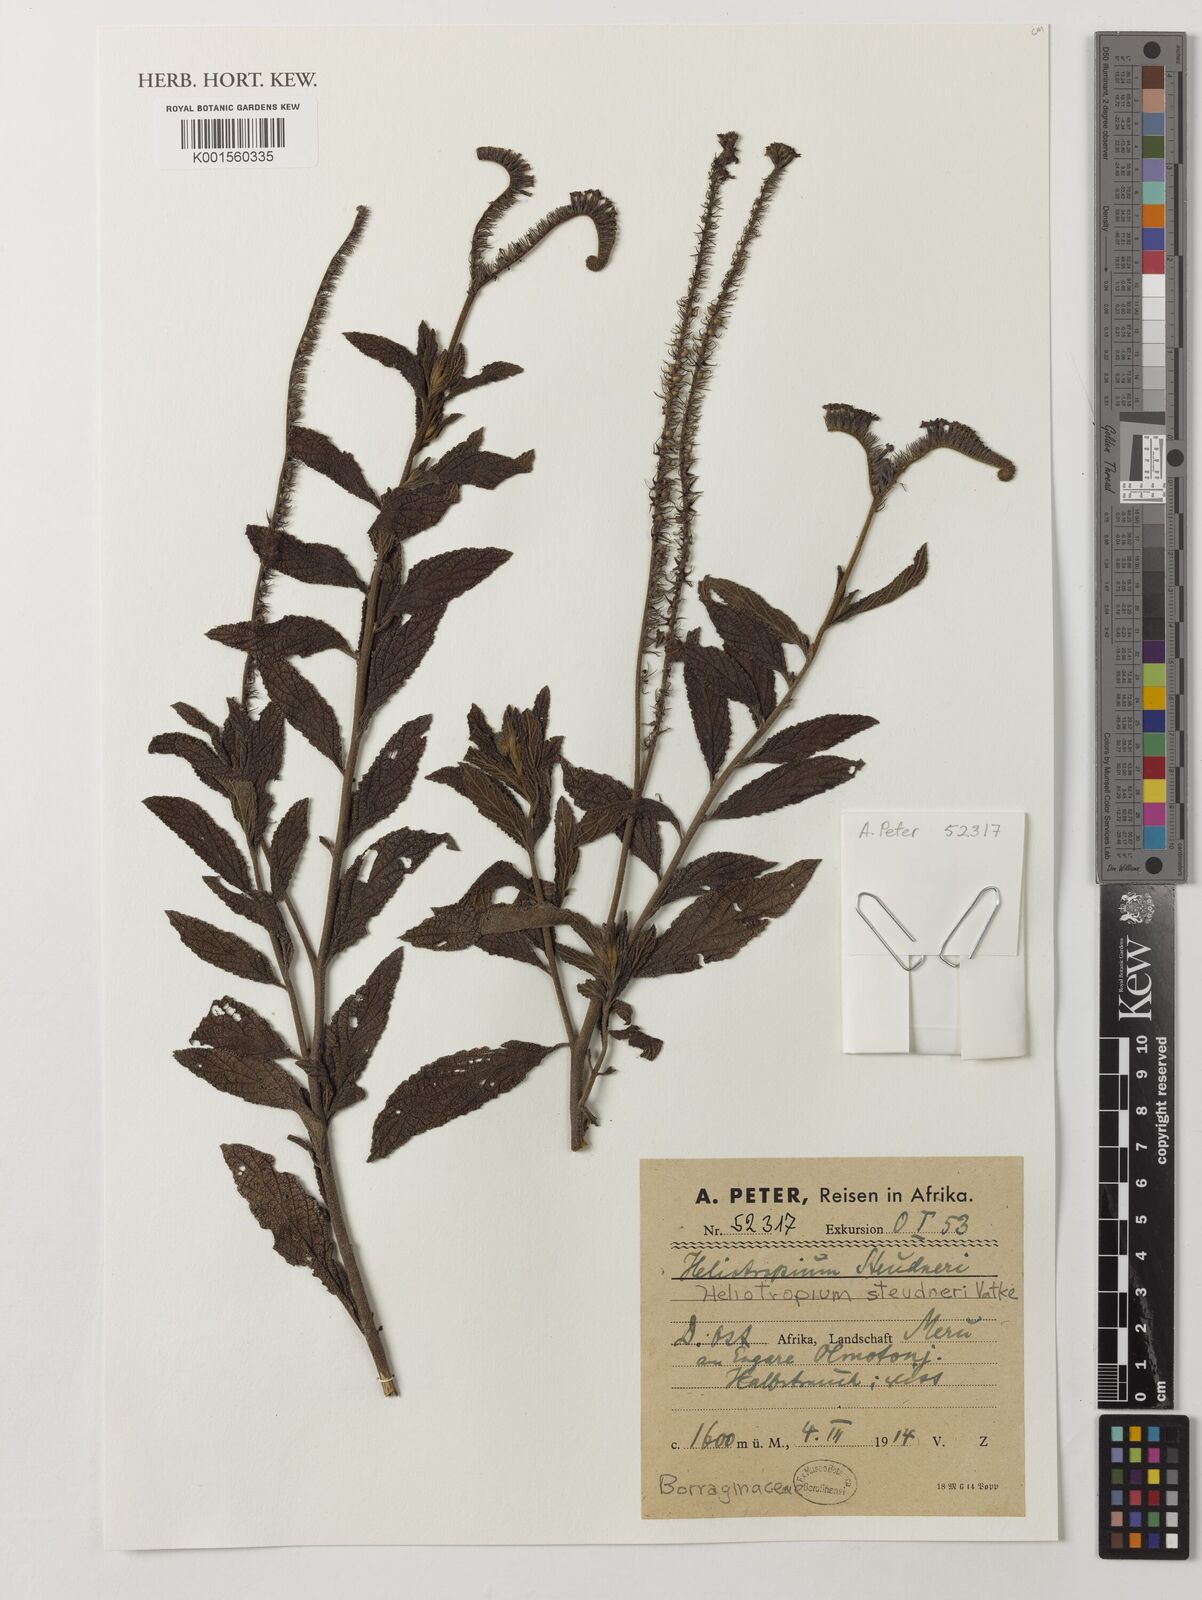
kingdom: Plantae
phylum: Tracheophyta
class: Magnoliopsida
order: Boraginales
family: Heliotropiaceae
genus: Heliotropium
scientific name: Heliotropium steudneri
